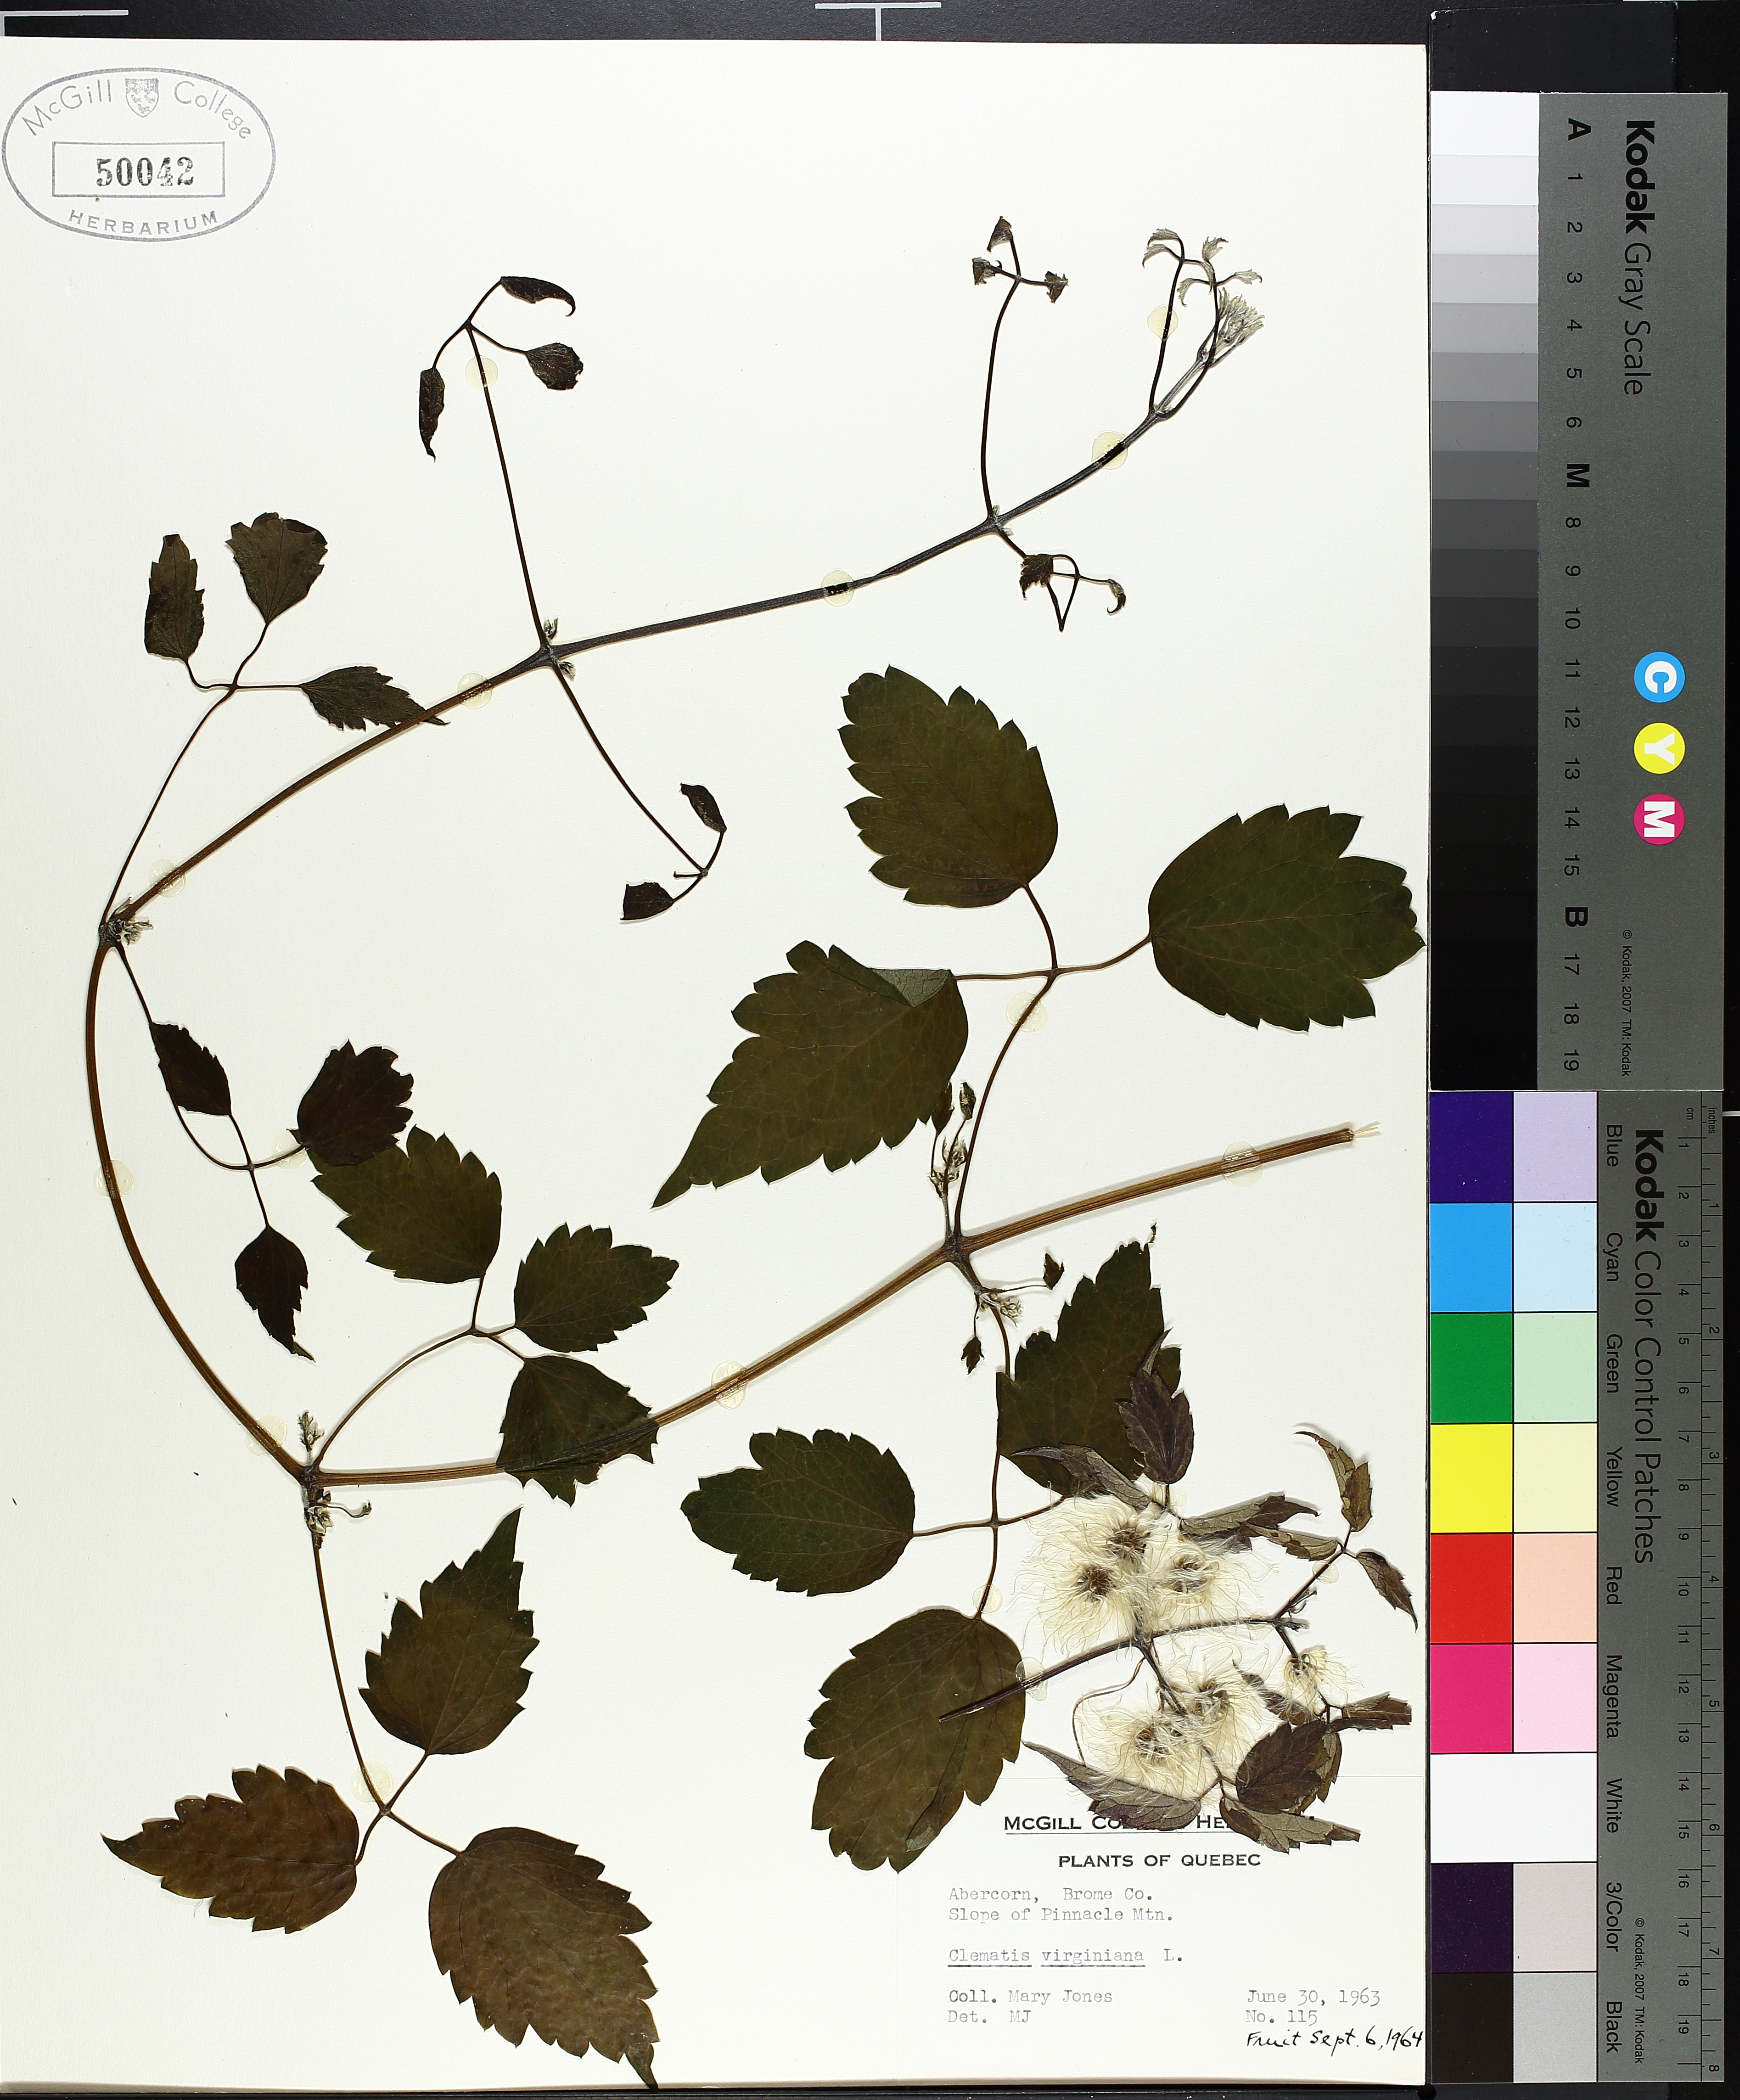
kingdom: Plantae
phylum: Tracheophyta
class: Lycopodiopsida
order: Lycopodiales
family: Lycopodiaceae
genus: Diphasiastrum
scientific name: Diphasiastrum digitatum
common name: Southern running-pine
